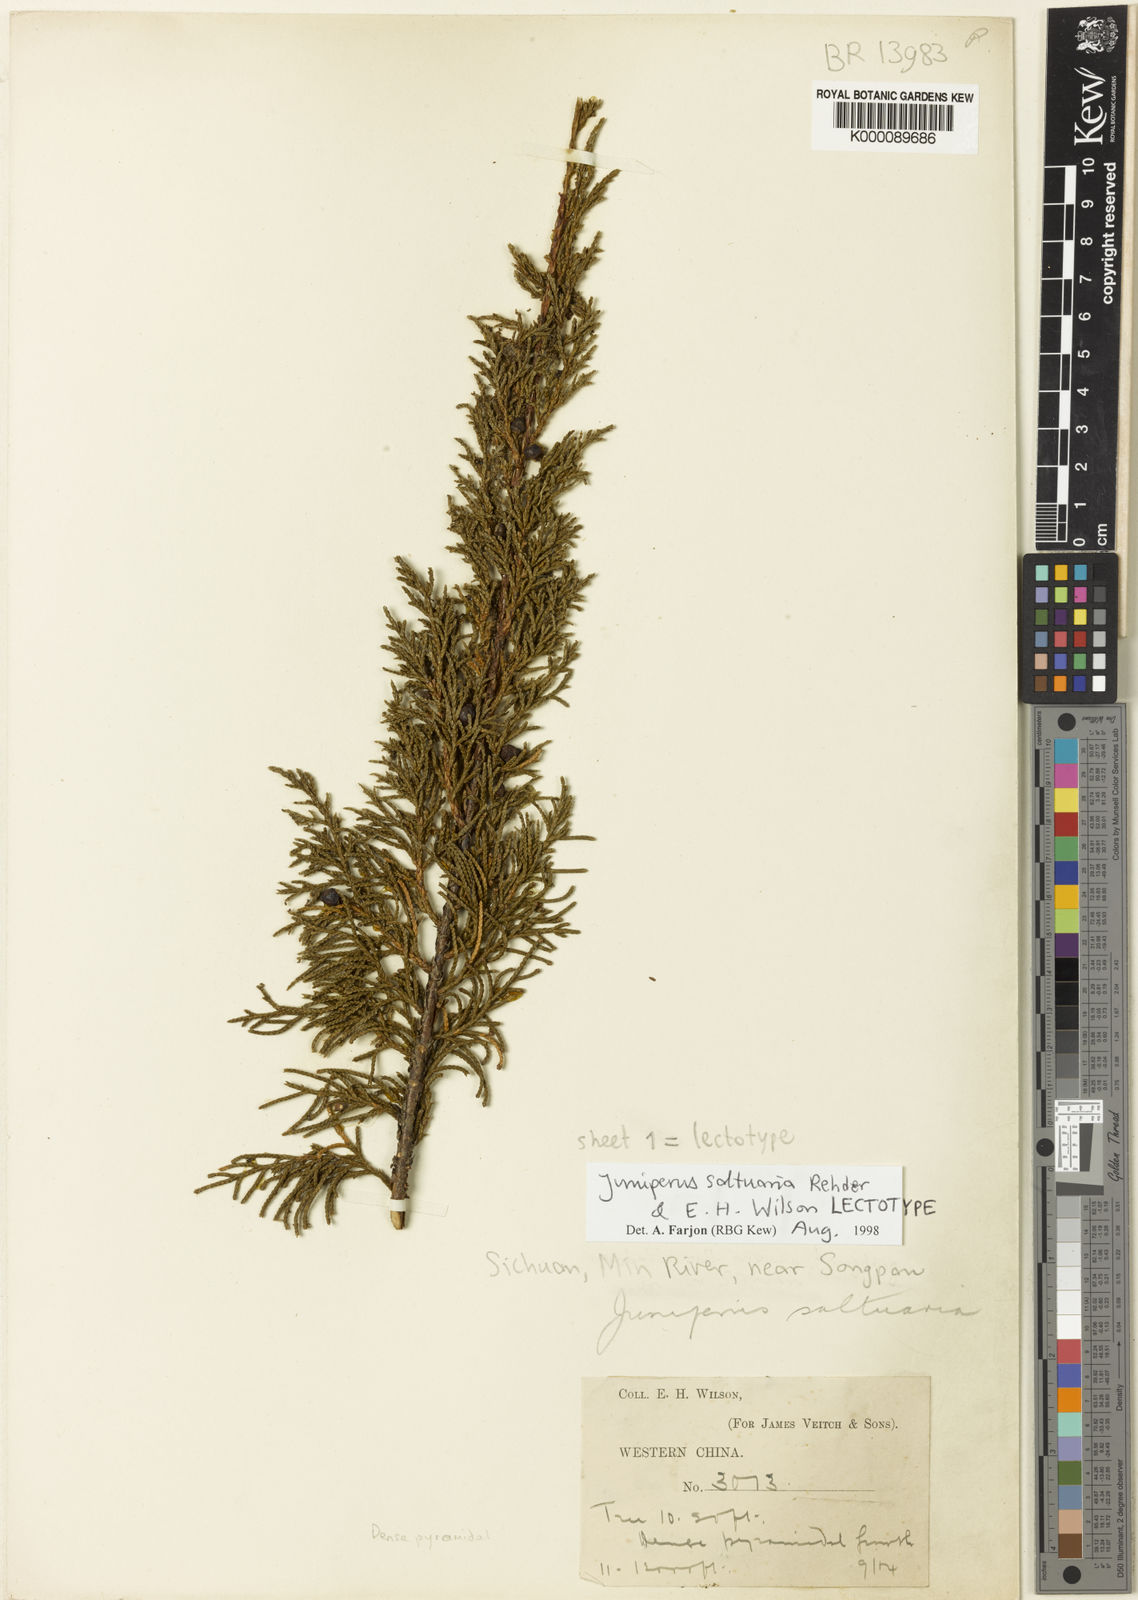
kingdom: Plantae
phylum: Tracheophyta
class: Pinopsida
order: Pinales
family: Cupressaceae
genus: Juniperus
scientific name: Juniperus saltuaria
